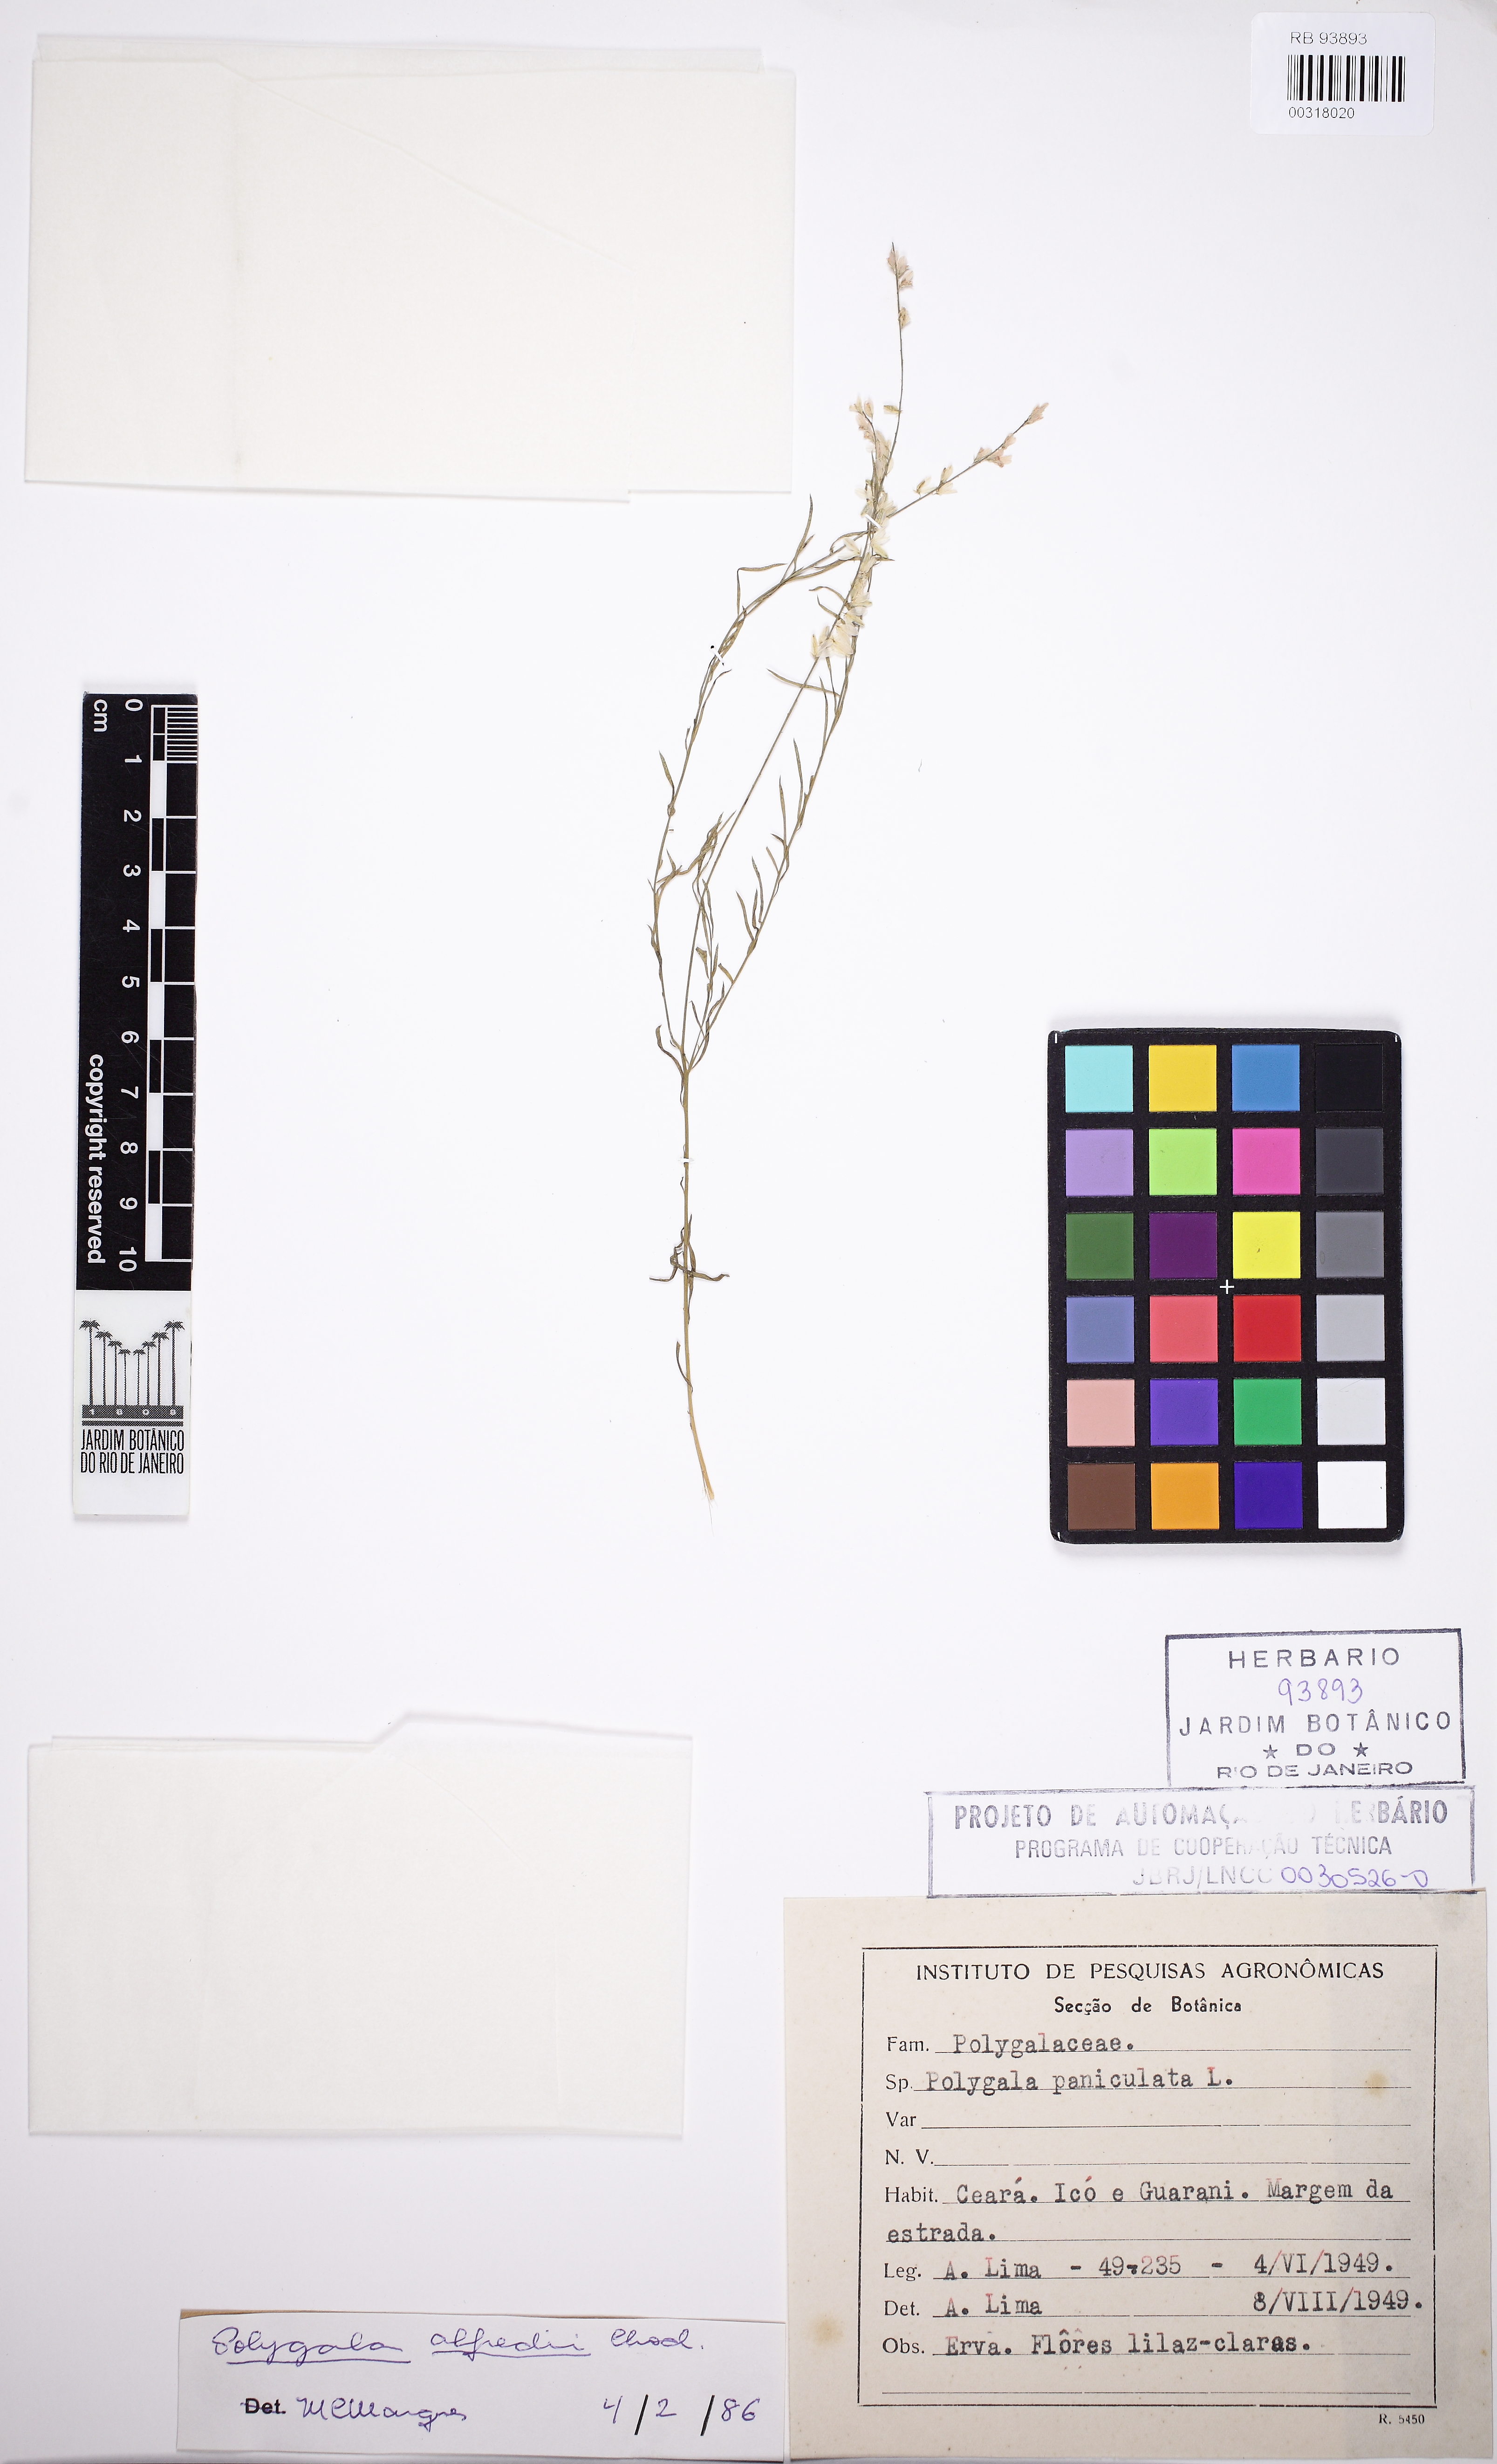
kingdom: Plantae
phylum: Tracheophyta
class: Magnoliopsida
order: Fabales
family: Polygalaceae
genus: Polygala
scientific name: Polygala boliviensis
